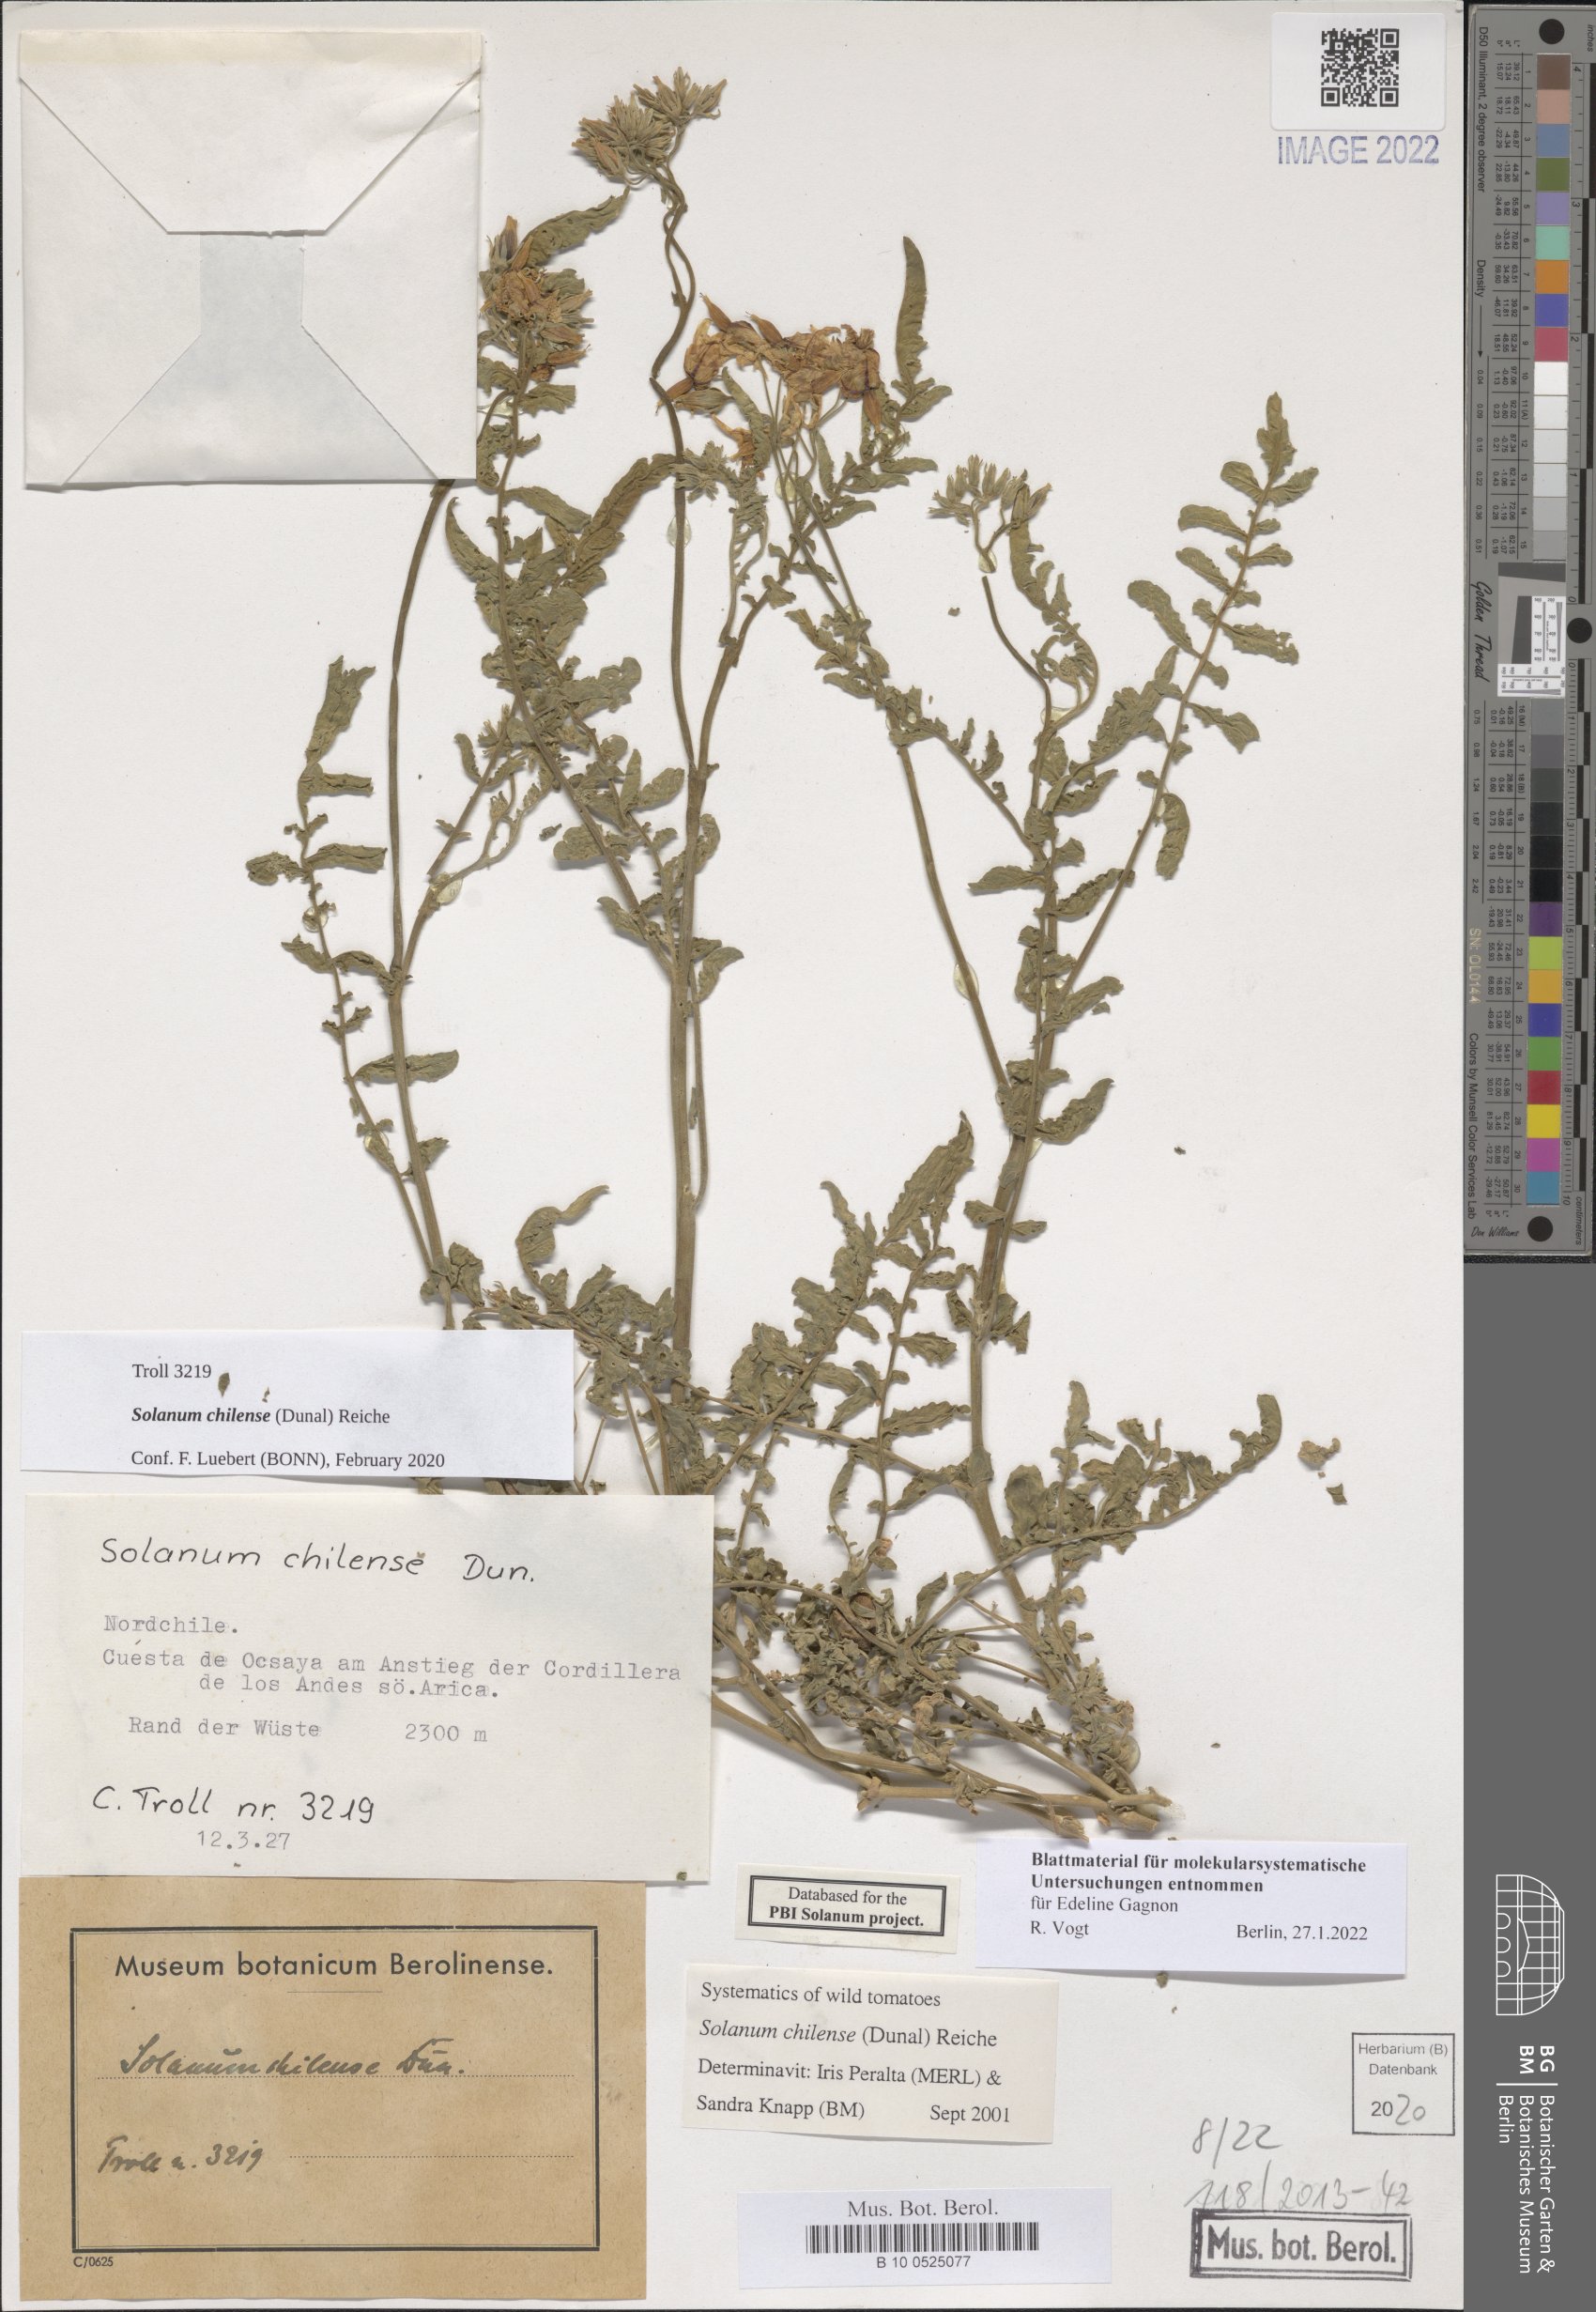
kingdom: Plantae
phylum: Tracheophyta
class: Magnoliopsida
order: Solanales
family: Solanaceae
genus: Solanum
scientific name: Solanum chilense
